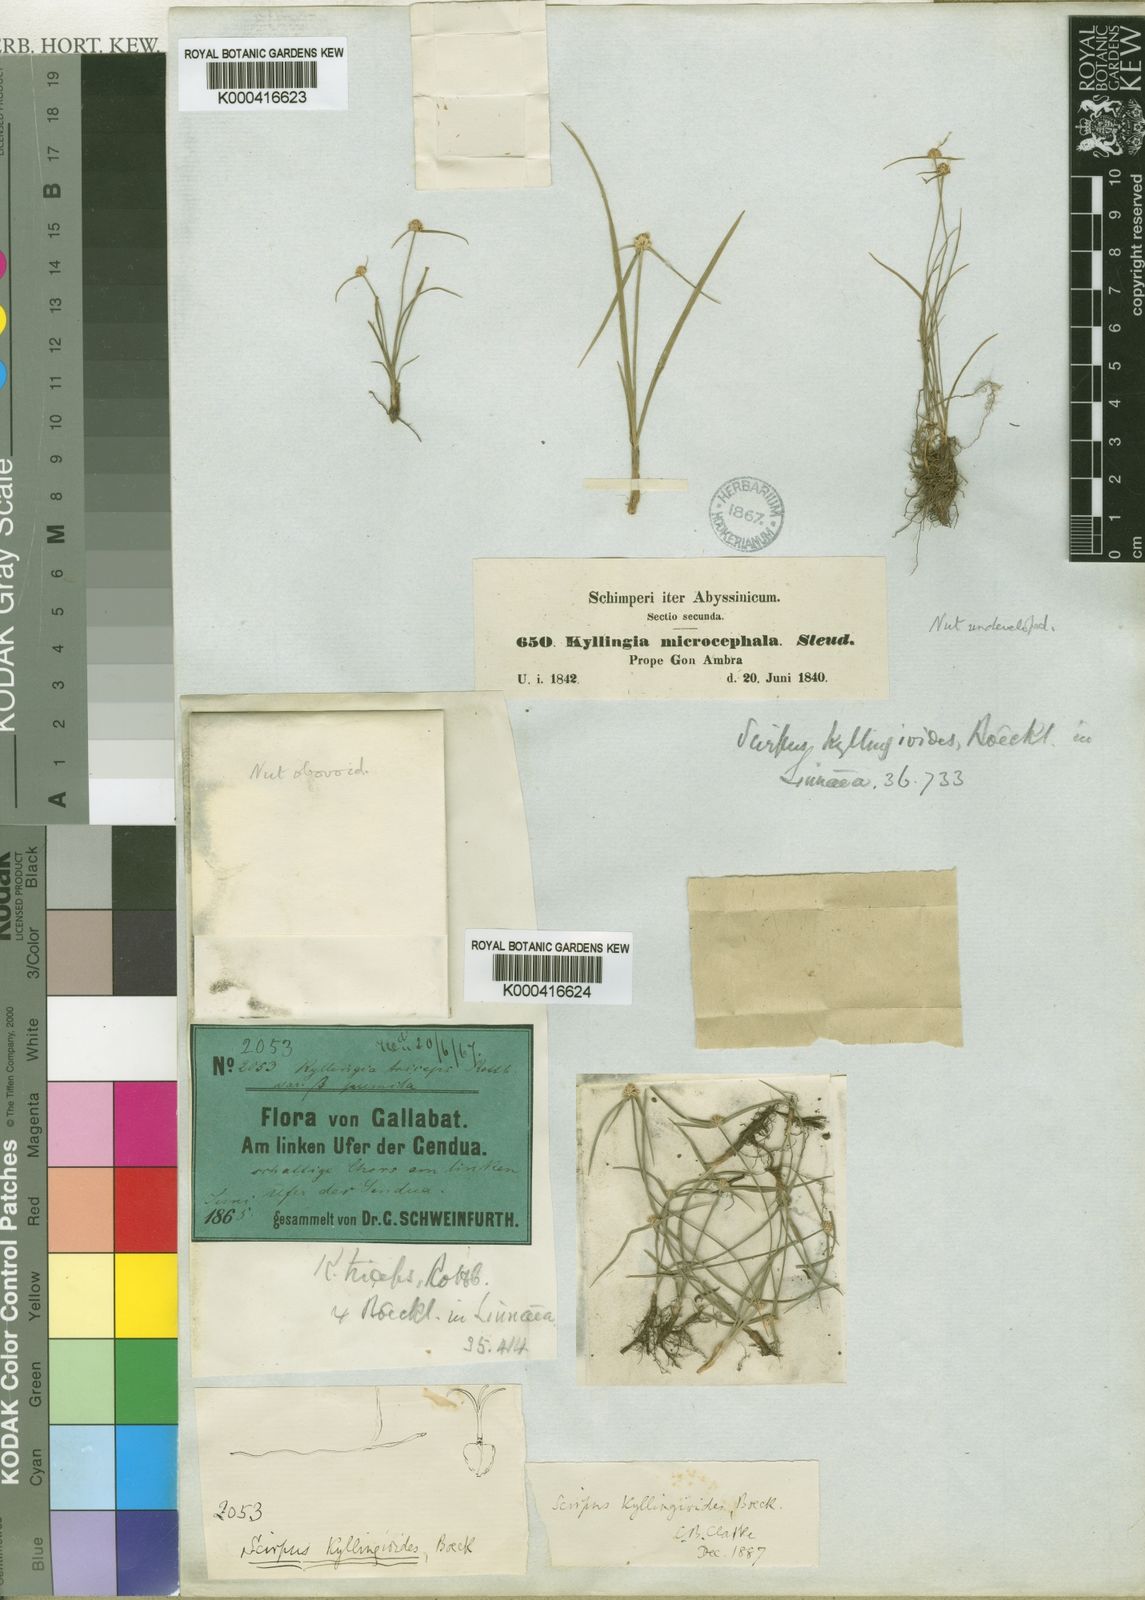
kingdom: Plantae
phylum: Tracheophyta
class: Liliopsida
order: Poales
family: Cyperaceae
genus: Cyperus
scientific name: Cyperus kyllingiella
